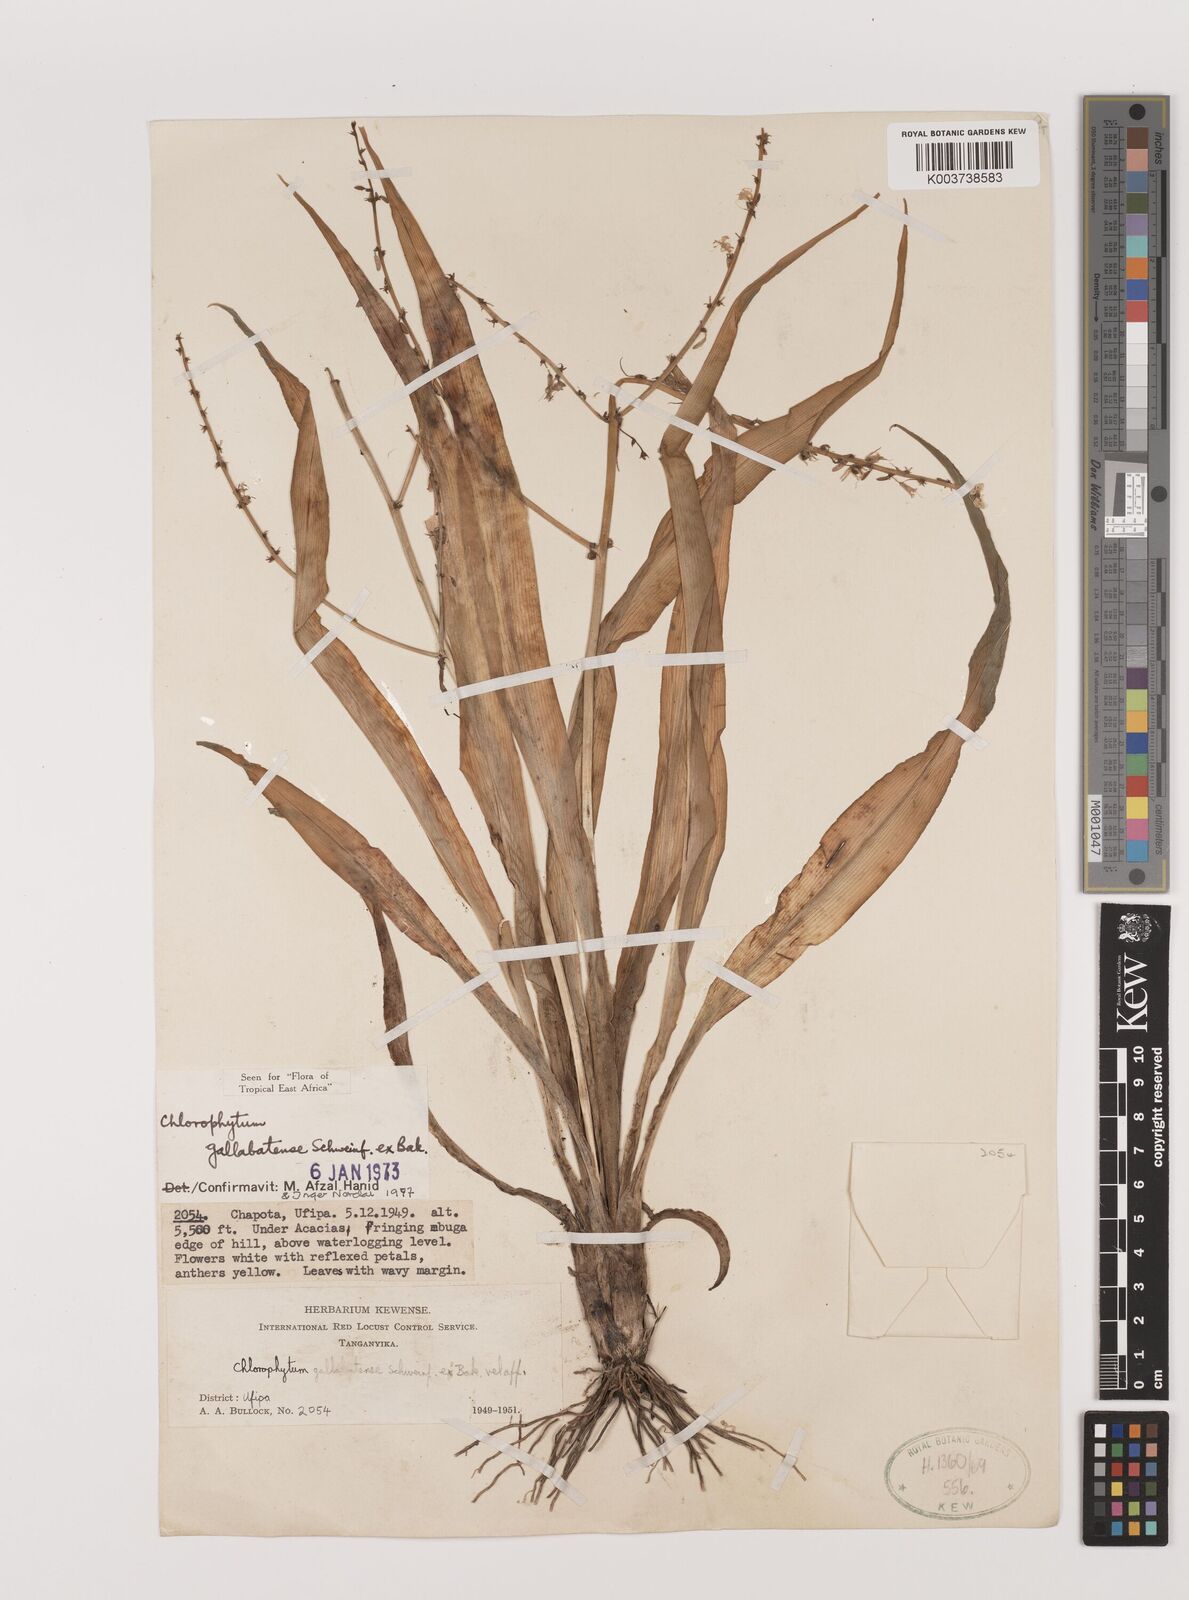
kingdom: Plantae
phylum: Tracheophyta
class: Liliopsida
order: Asparagales
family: Asparagaceae
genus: Chlorophytum
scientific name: Chlorophytum gallabatense
